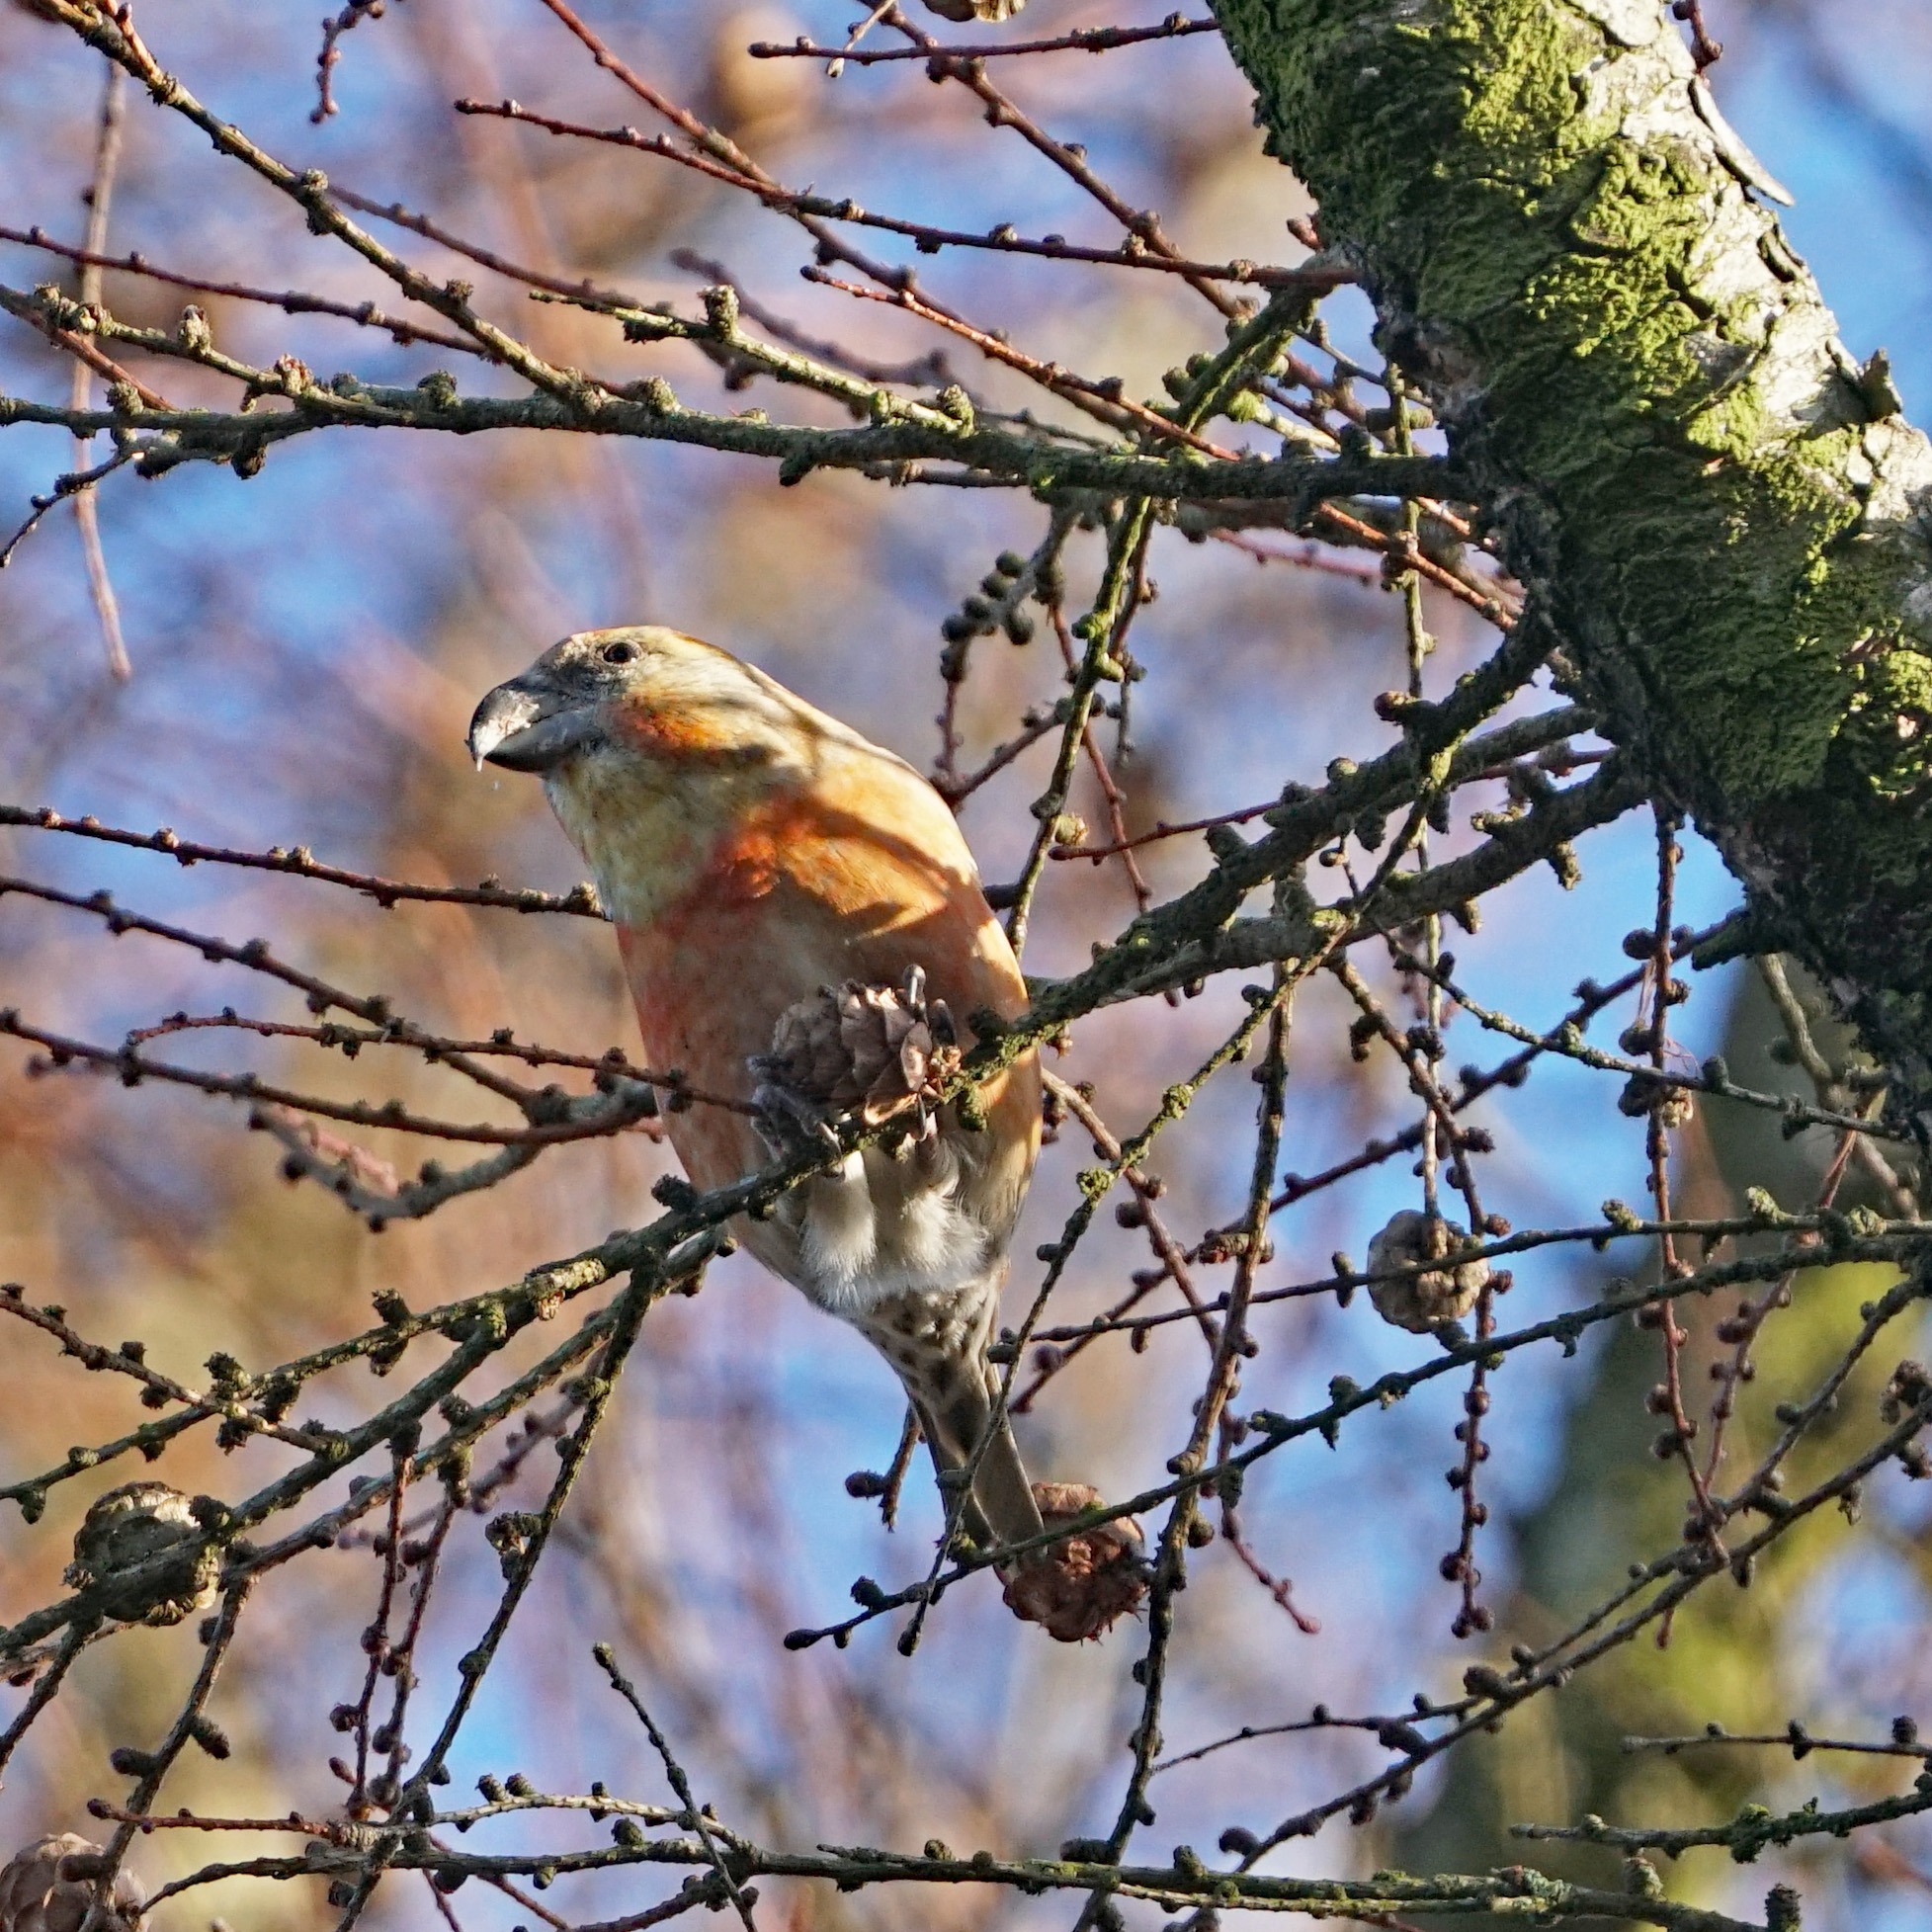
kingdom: Animalia
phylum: Chordata
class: Aves
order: Passeriformes
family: Fringillidae
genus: Loxia
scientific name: Loxia pytyopsittacus
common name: Stor korsnæb
